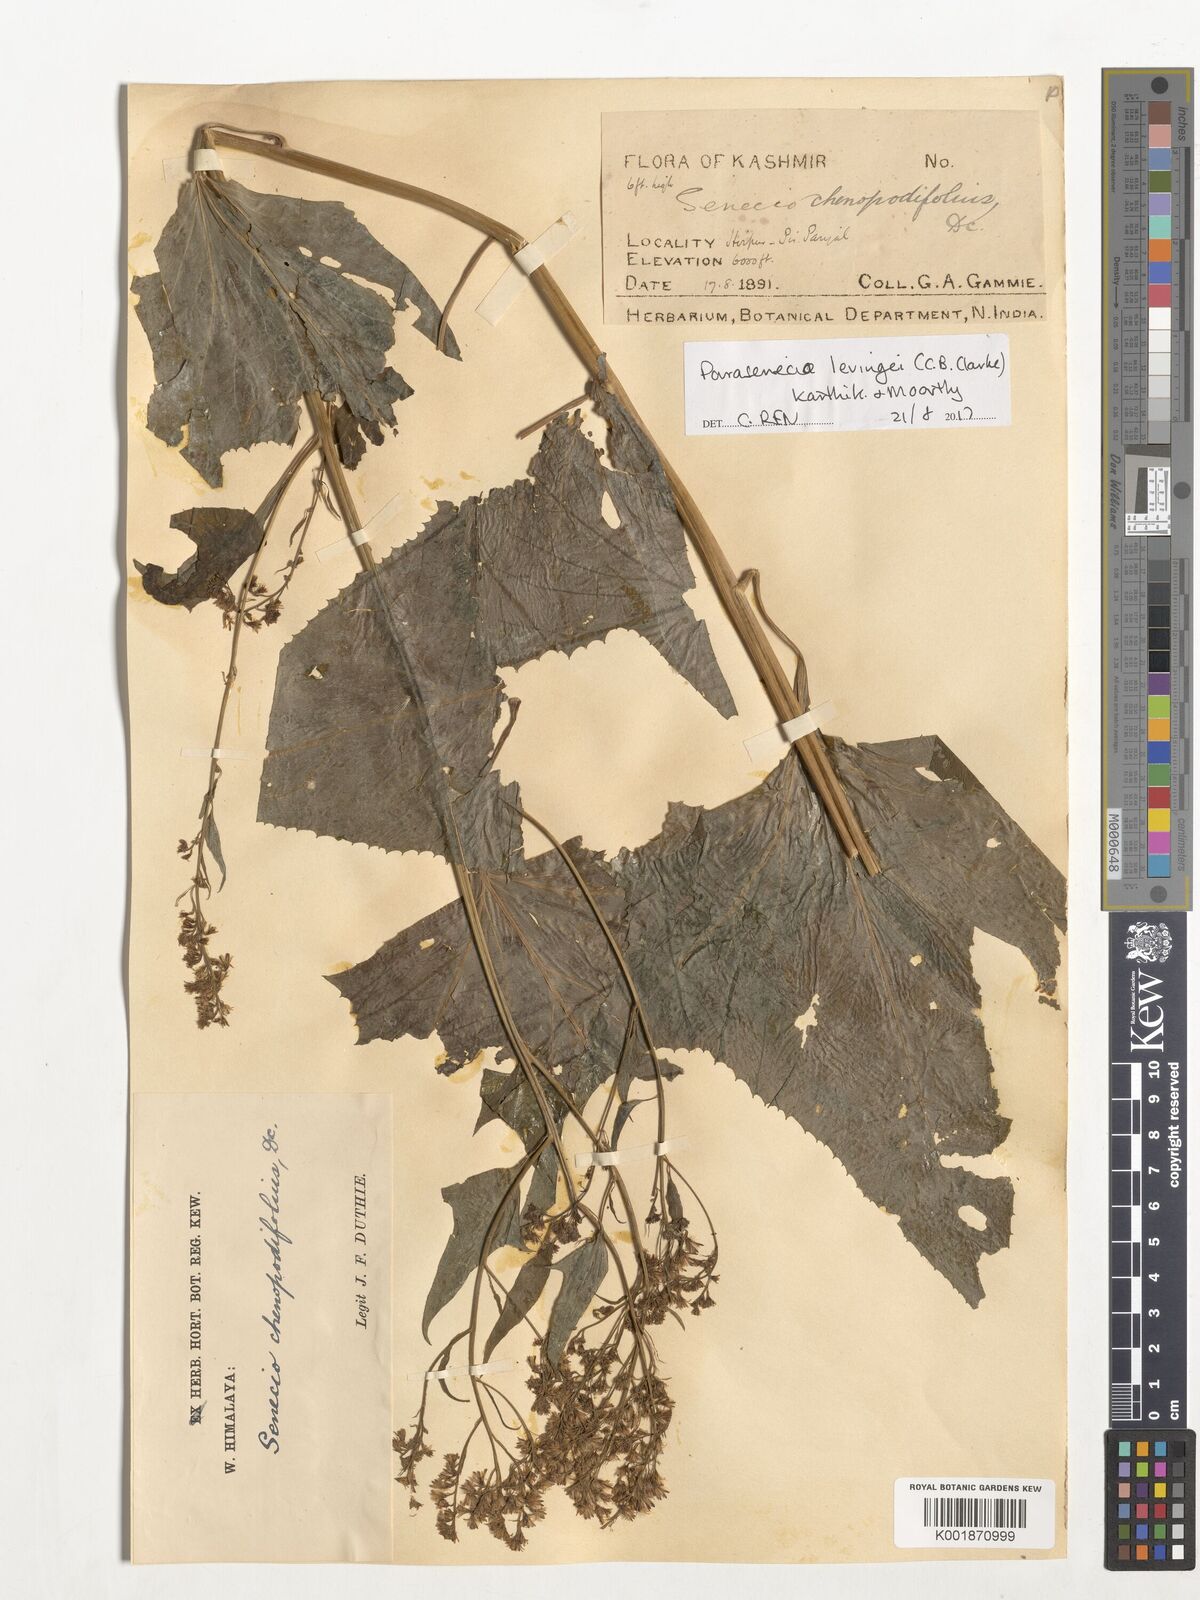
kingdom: Plantae
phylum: Tracheophyta
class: Magnoliopsida
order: Asterales
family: Asteraceae
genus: Parasenecio
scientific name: Parasenecio levingei
